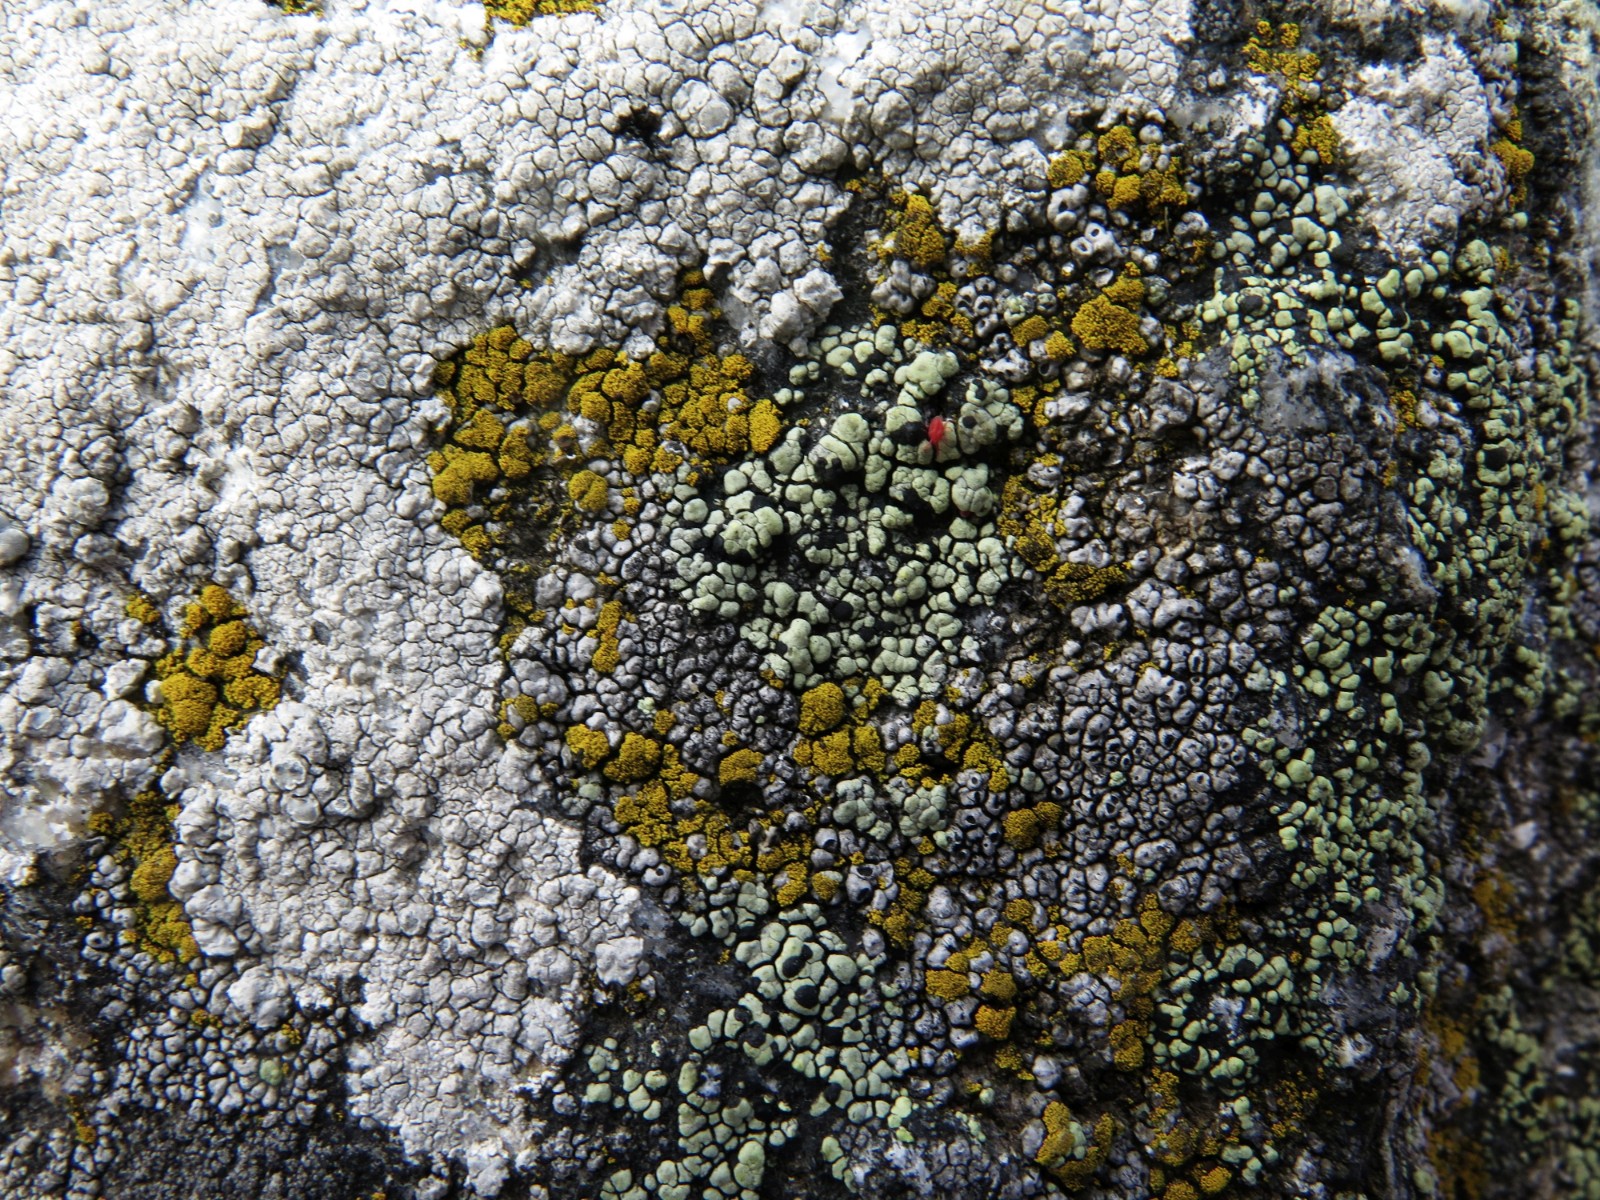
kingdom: Fungi
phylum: Ascomycota
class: Lecanoromycetes
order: Rhizocarpales
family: Rhizocarpaceae
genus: Rhizocarpon
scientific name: Rhizocarpon lecanorinum
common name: krave-landkortlav
